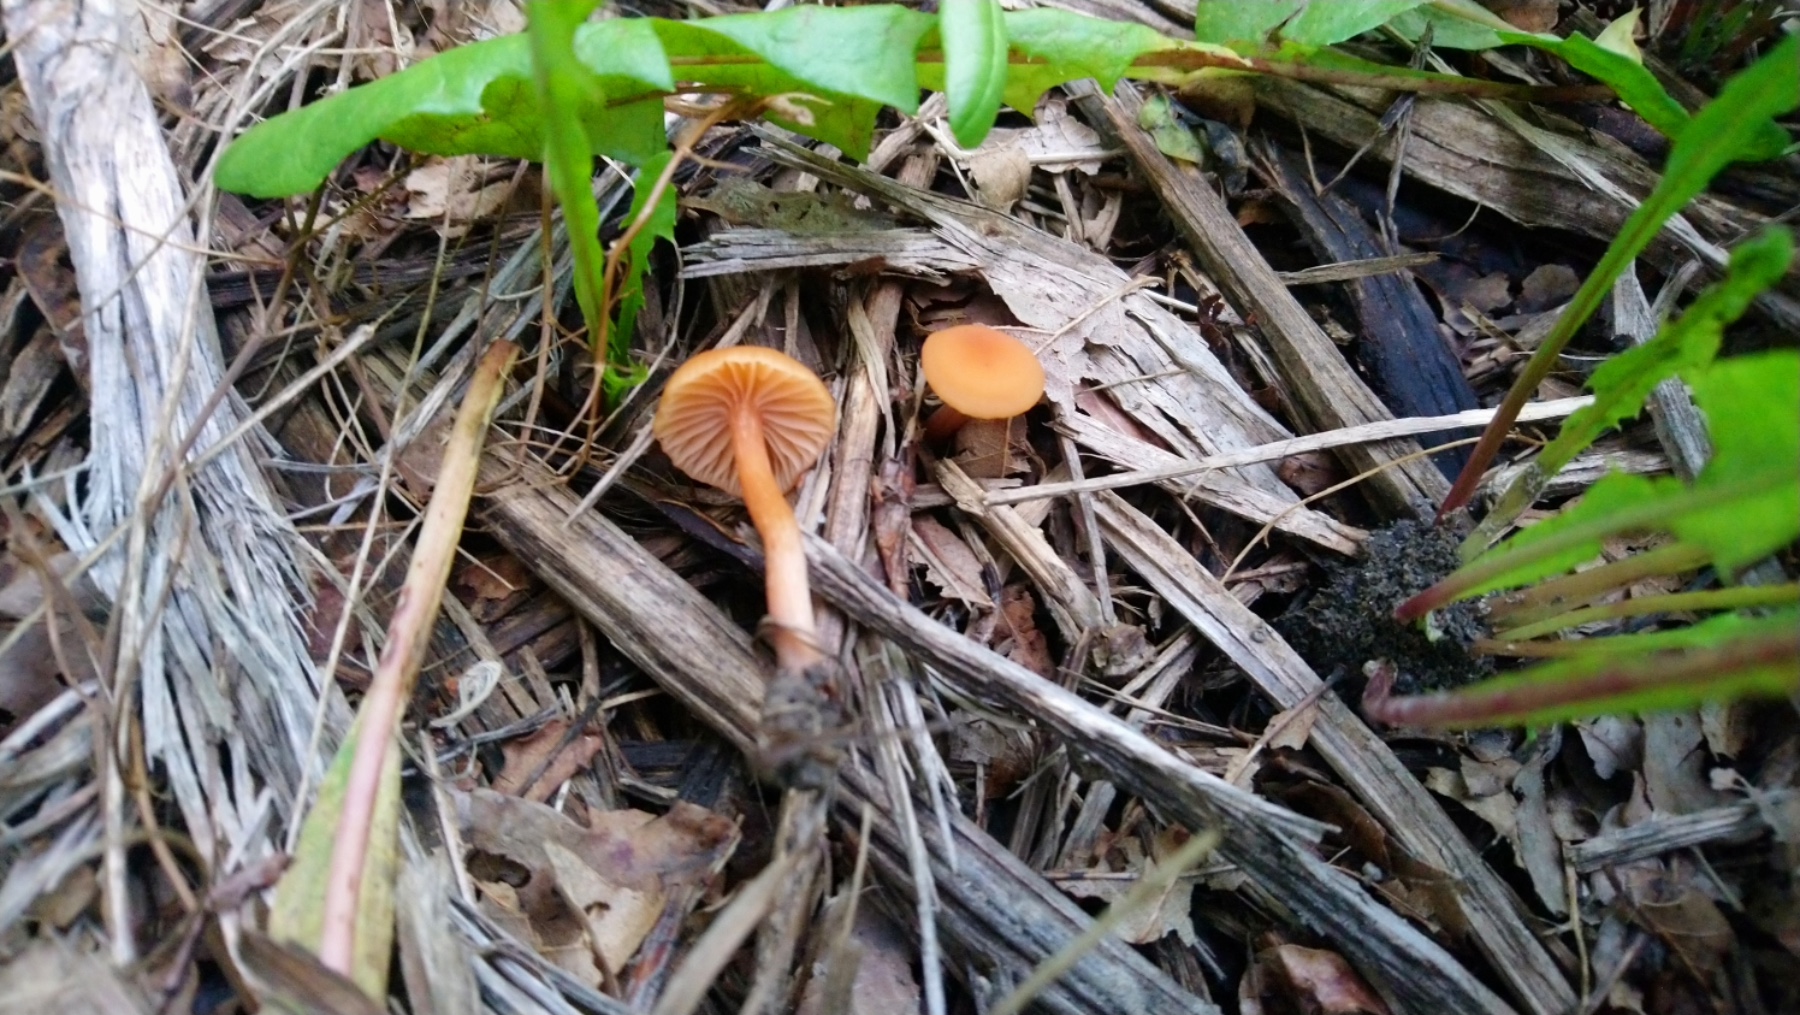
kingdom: Fungi
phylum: Basidiomycota
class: Agaricomycetes
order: Agaricales
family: Hydnangiaceae
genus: Laccaria
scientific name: Laccaria laccata
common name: rød ametysthat
